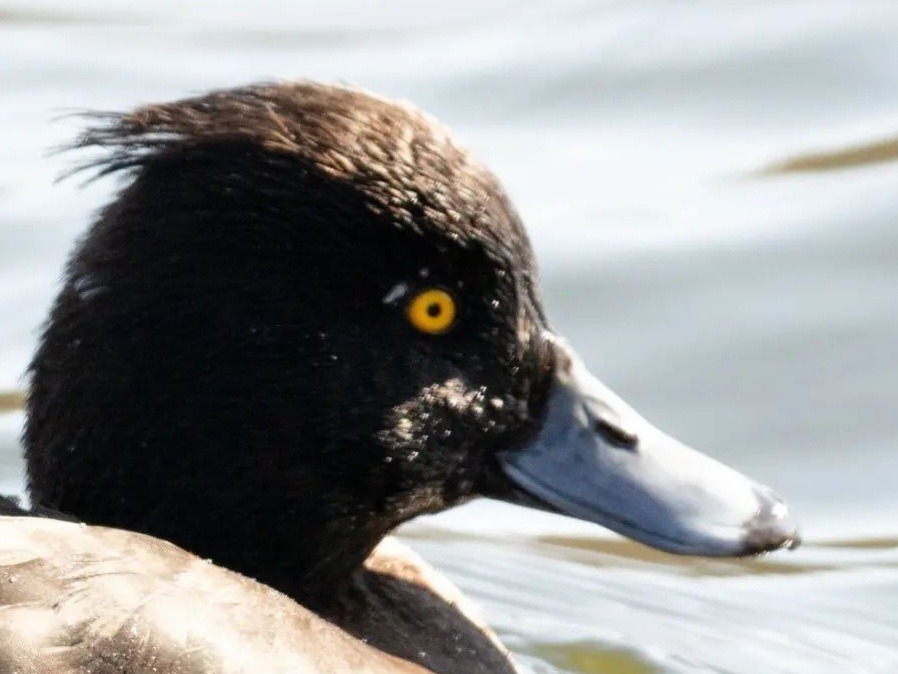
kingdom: Animalia
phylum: Chordata
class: Aves
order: Anseriformes
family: Anatidae
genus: Aythya
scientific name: Aythya fuligula
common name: Troldand
